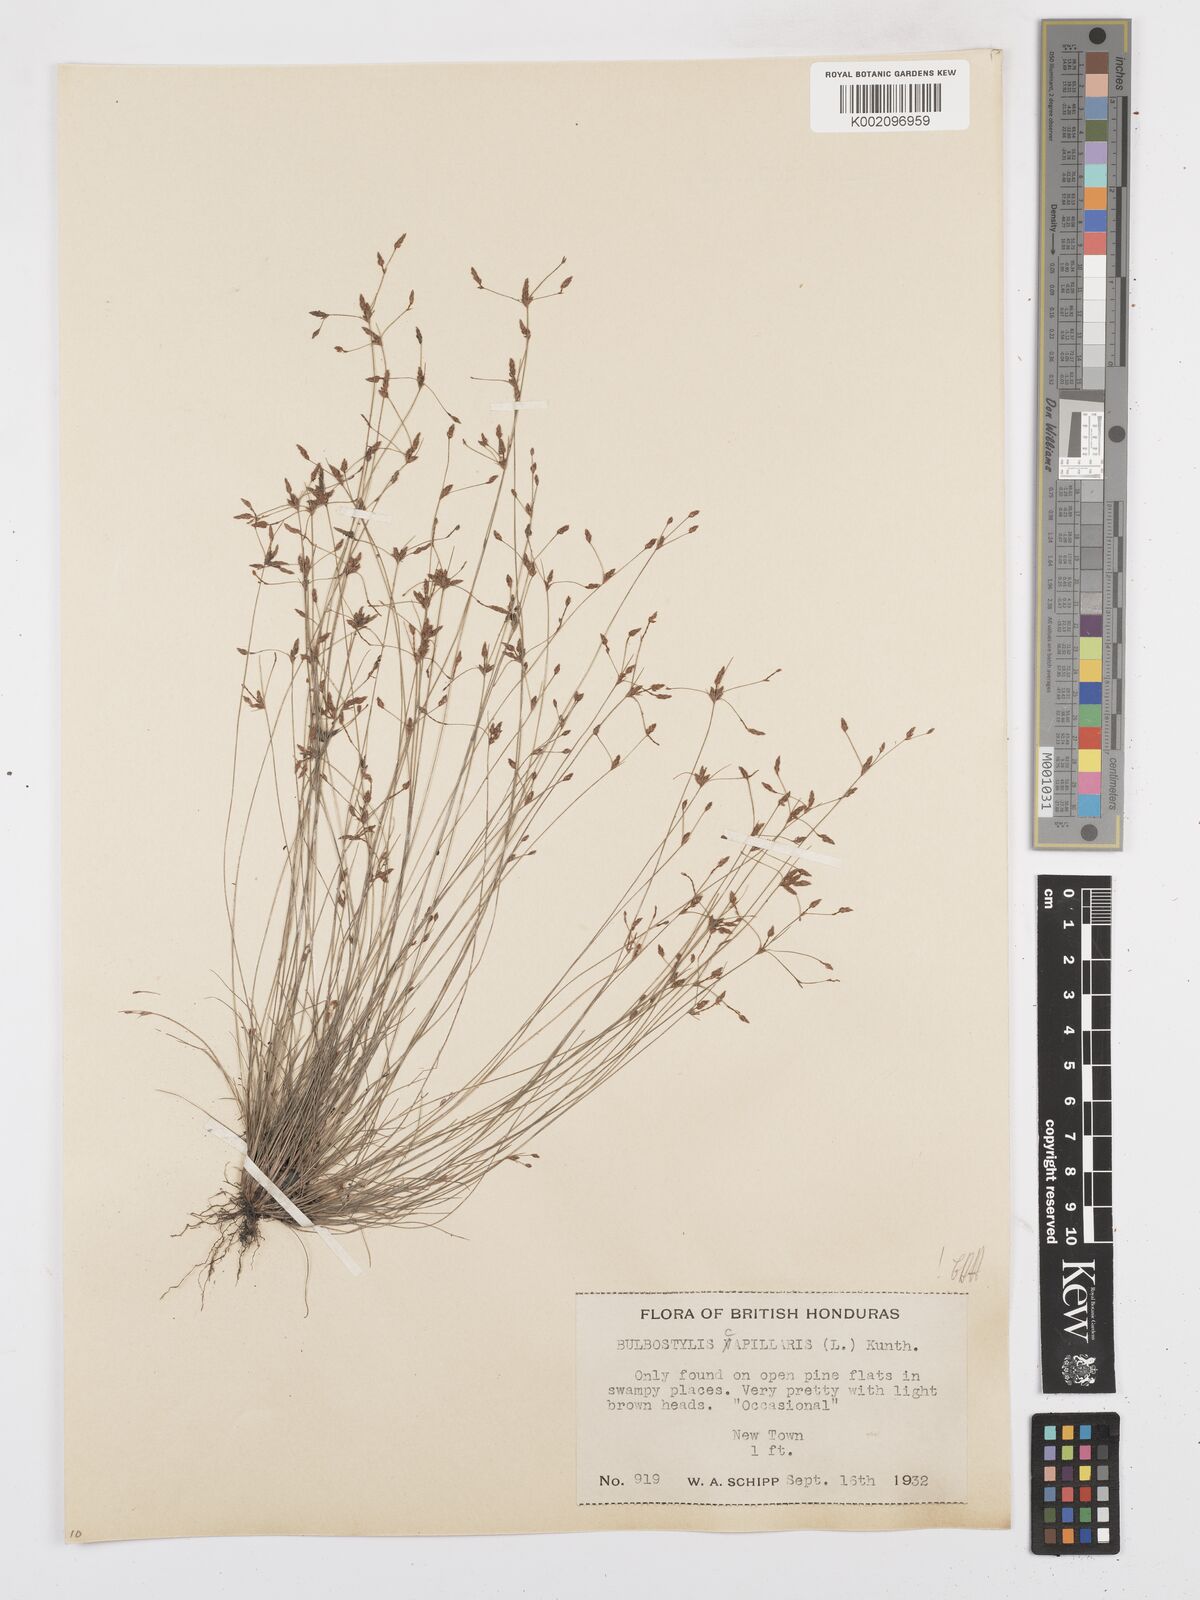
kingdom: Plantae
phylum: Tracheophyta
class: Liliopsida
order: Poales
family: Cyperaceae
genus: Bulbostylis
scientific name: Bulbostylis capillaris
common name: Densetuft hairsedge
